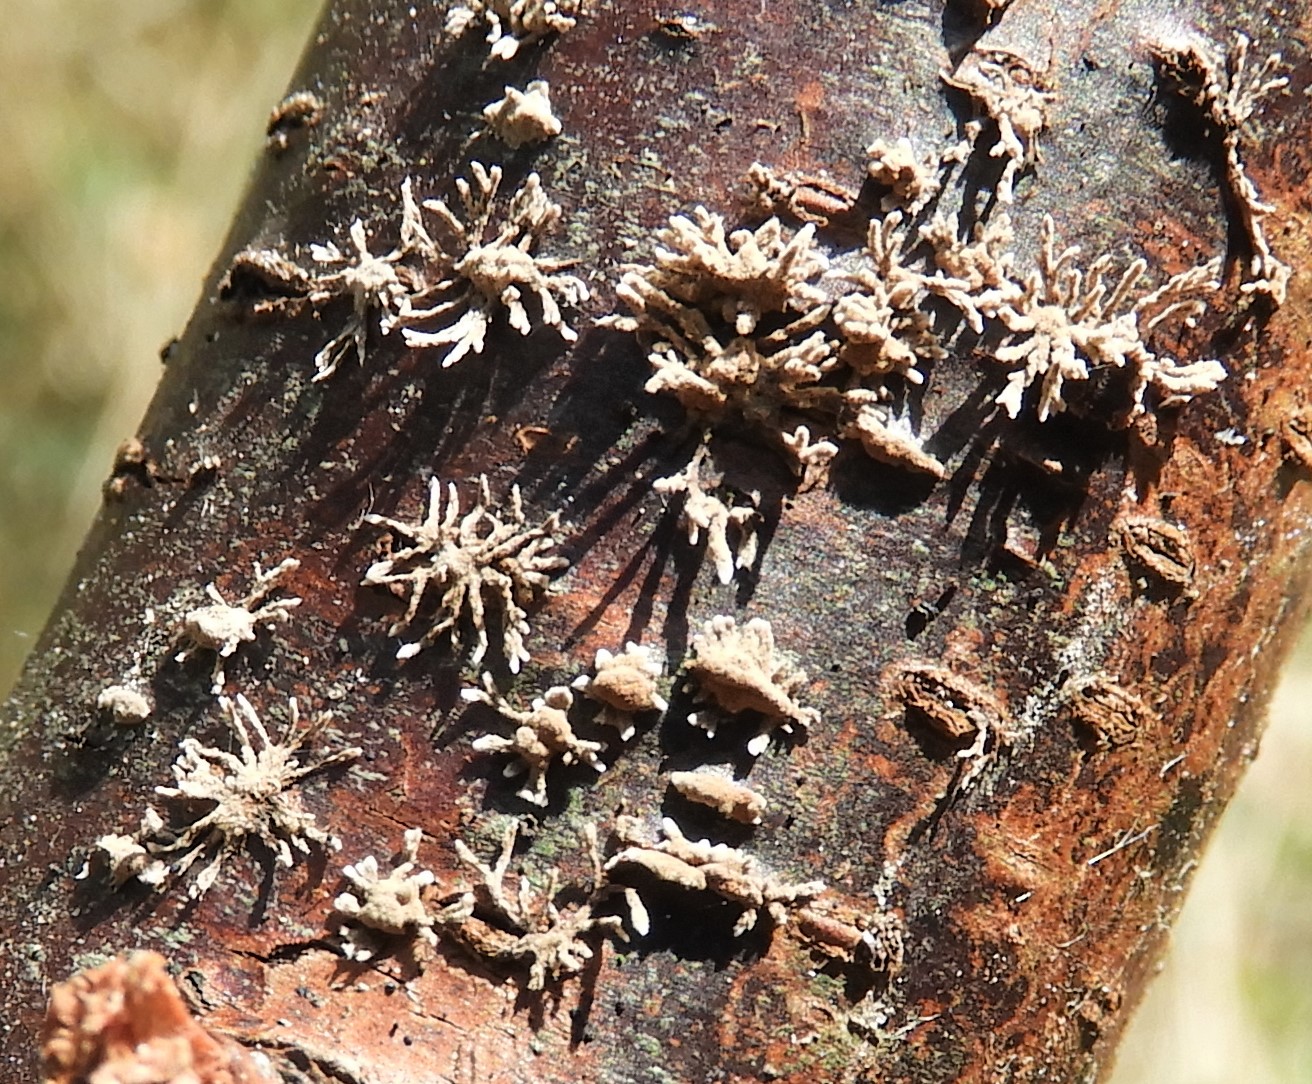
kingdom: Fungi
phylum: Ascomycota
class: Sordariomycetes
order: Xylariales
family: Hypoxylaceae
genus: Hypoxylon
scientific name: Hypoxylon howeanum
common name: halvkugleformet kulbær
